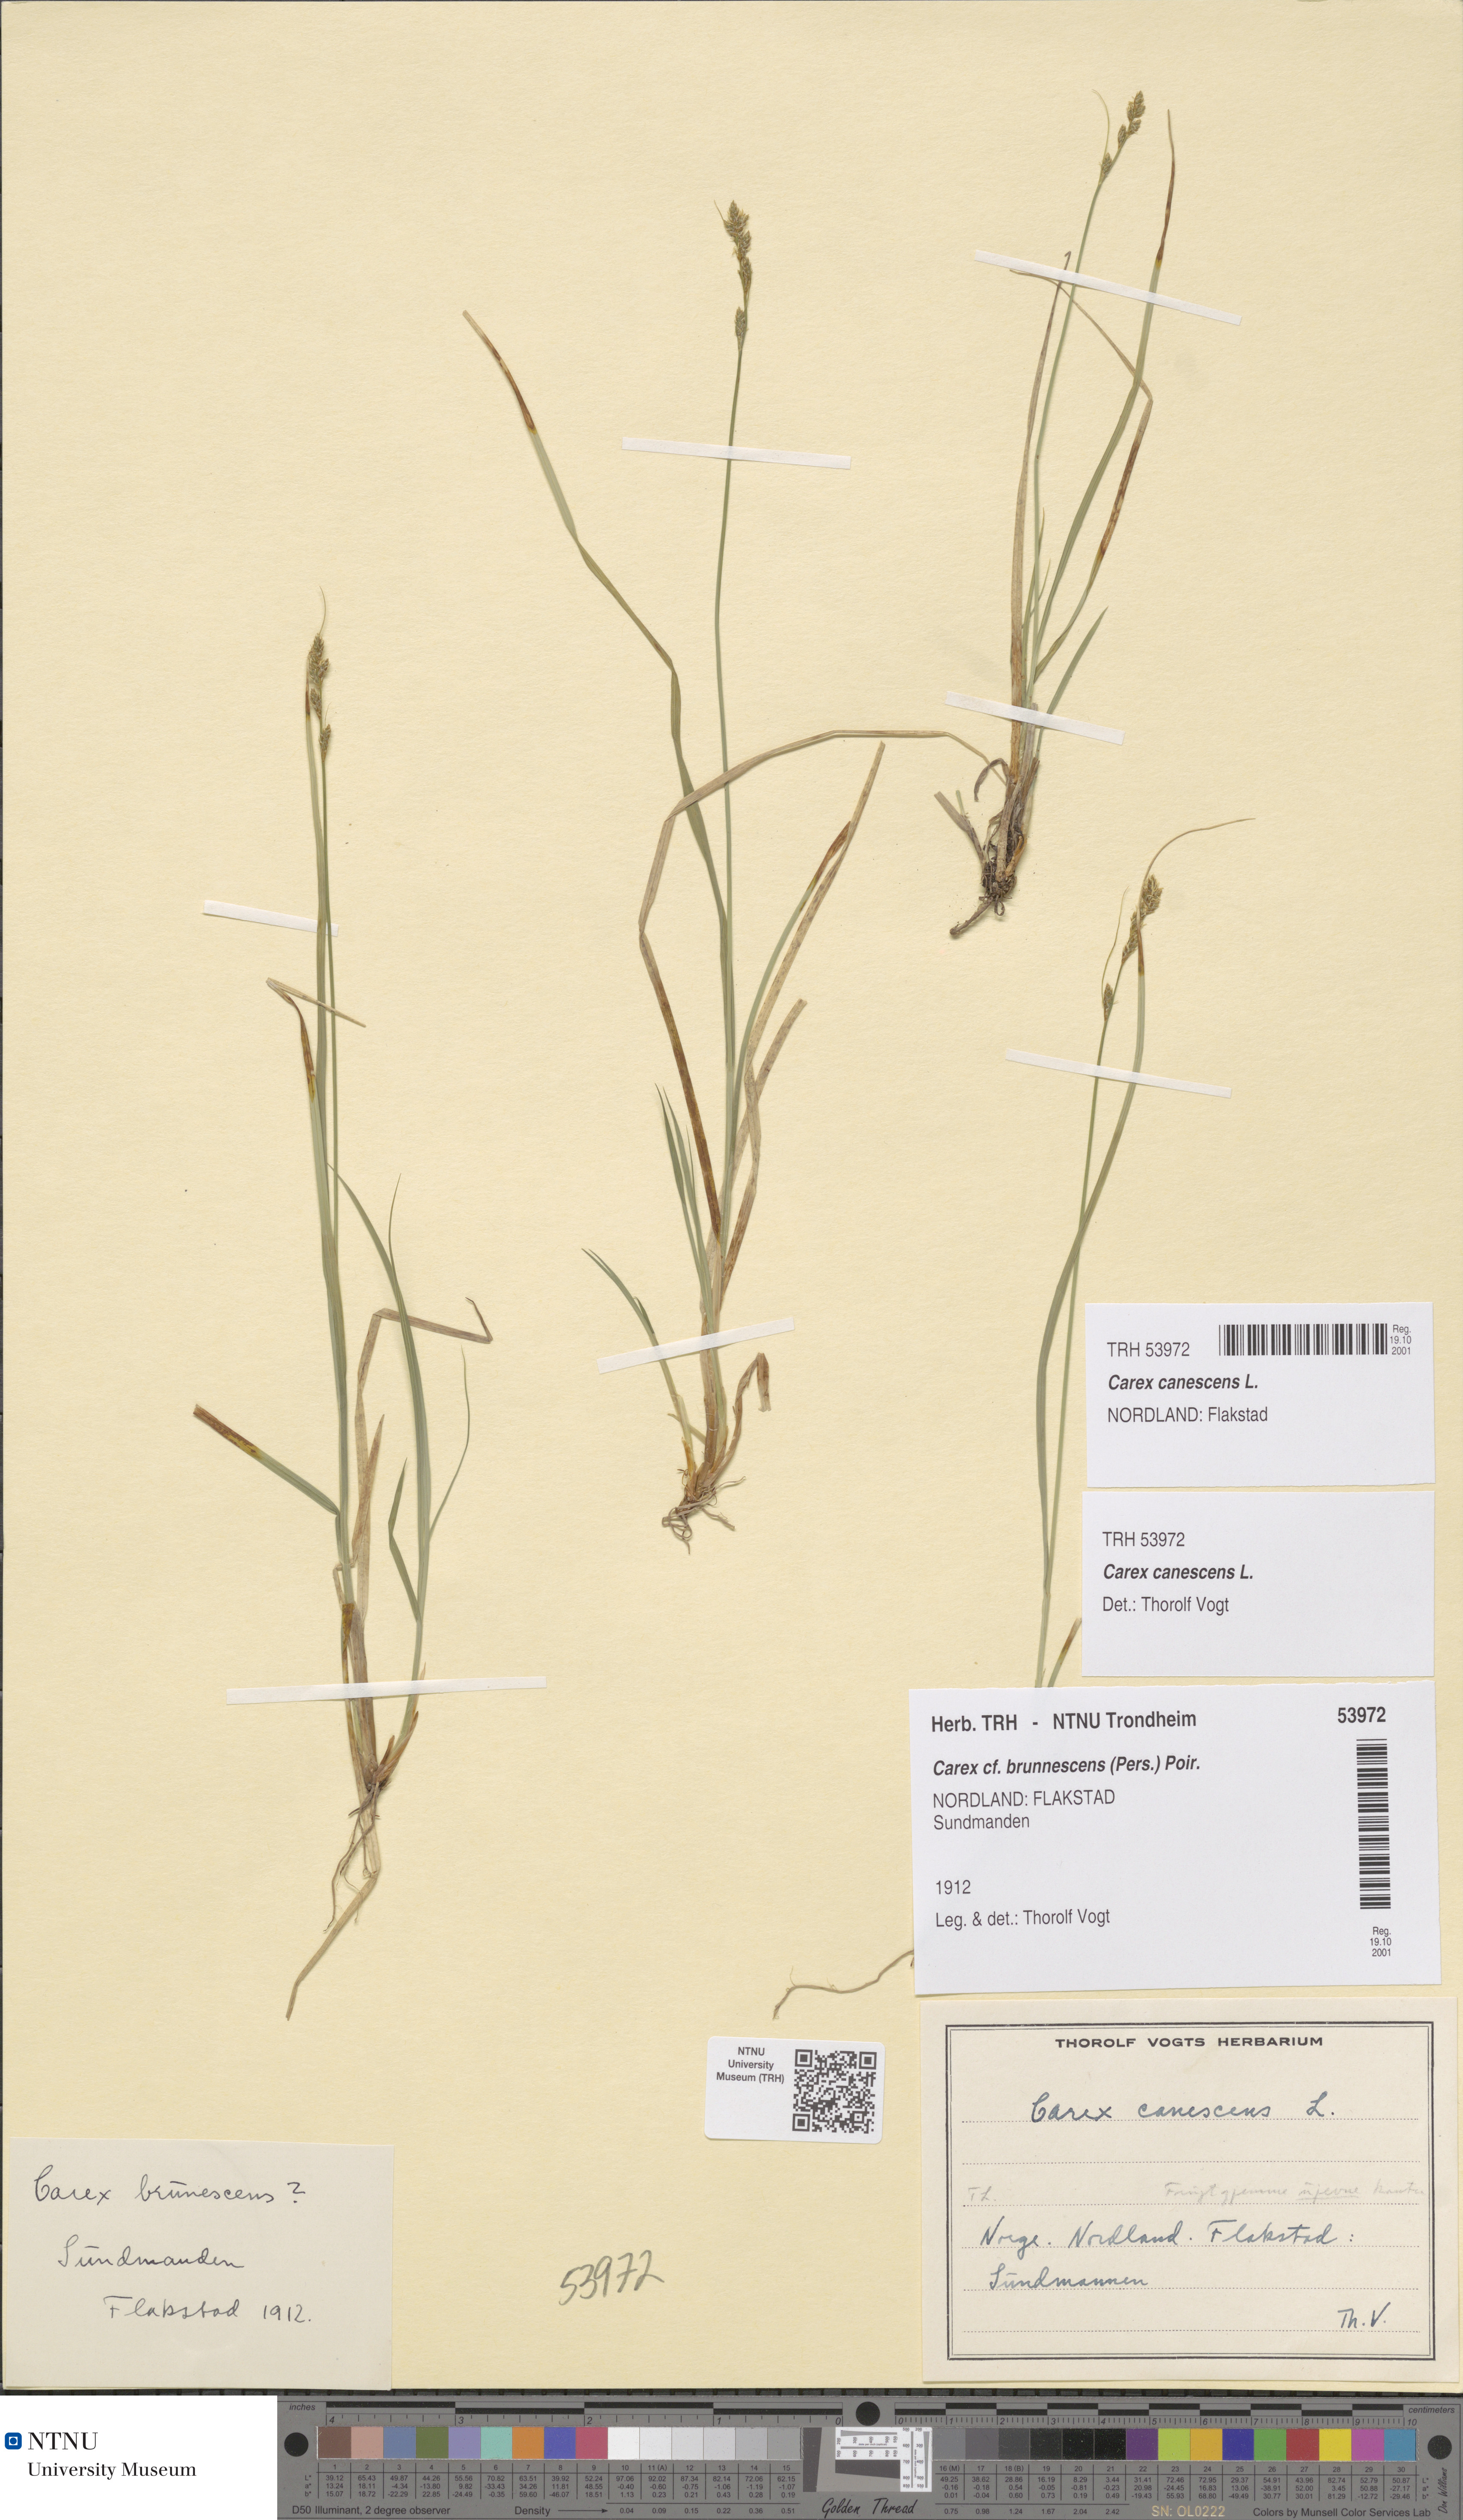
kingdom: Plantae
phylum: Tracheophyta
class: Liliopsida
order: Poales
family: Cyperaceae
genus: Carex
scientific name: Carex canescens
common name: White sedge
